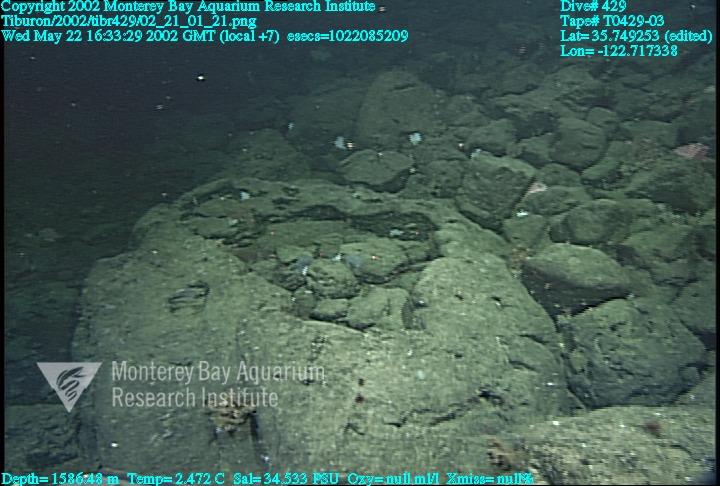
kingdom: Animalia
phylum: Porifera
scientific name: Porifera
